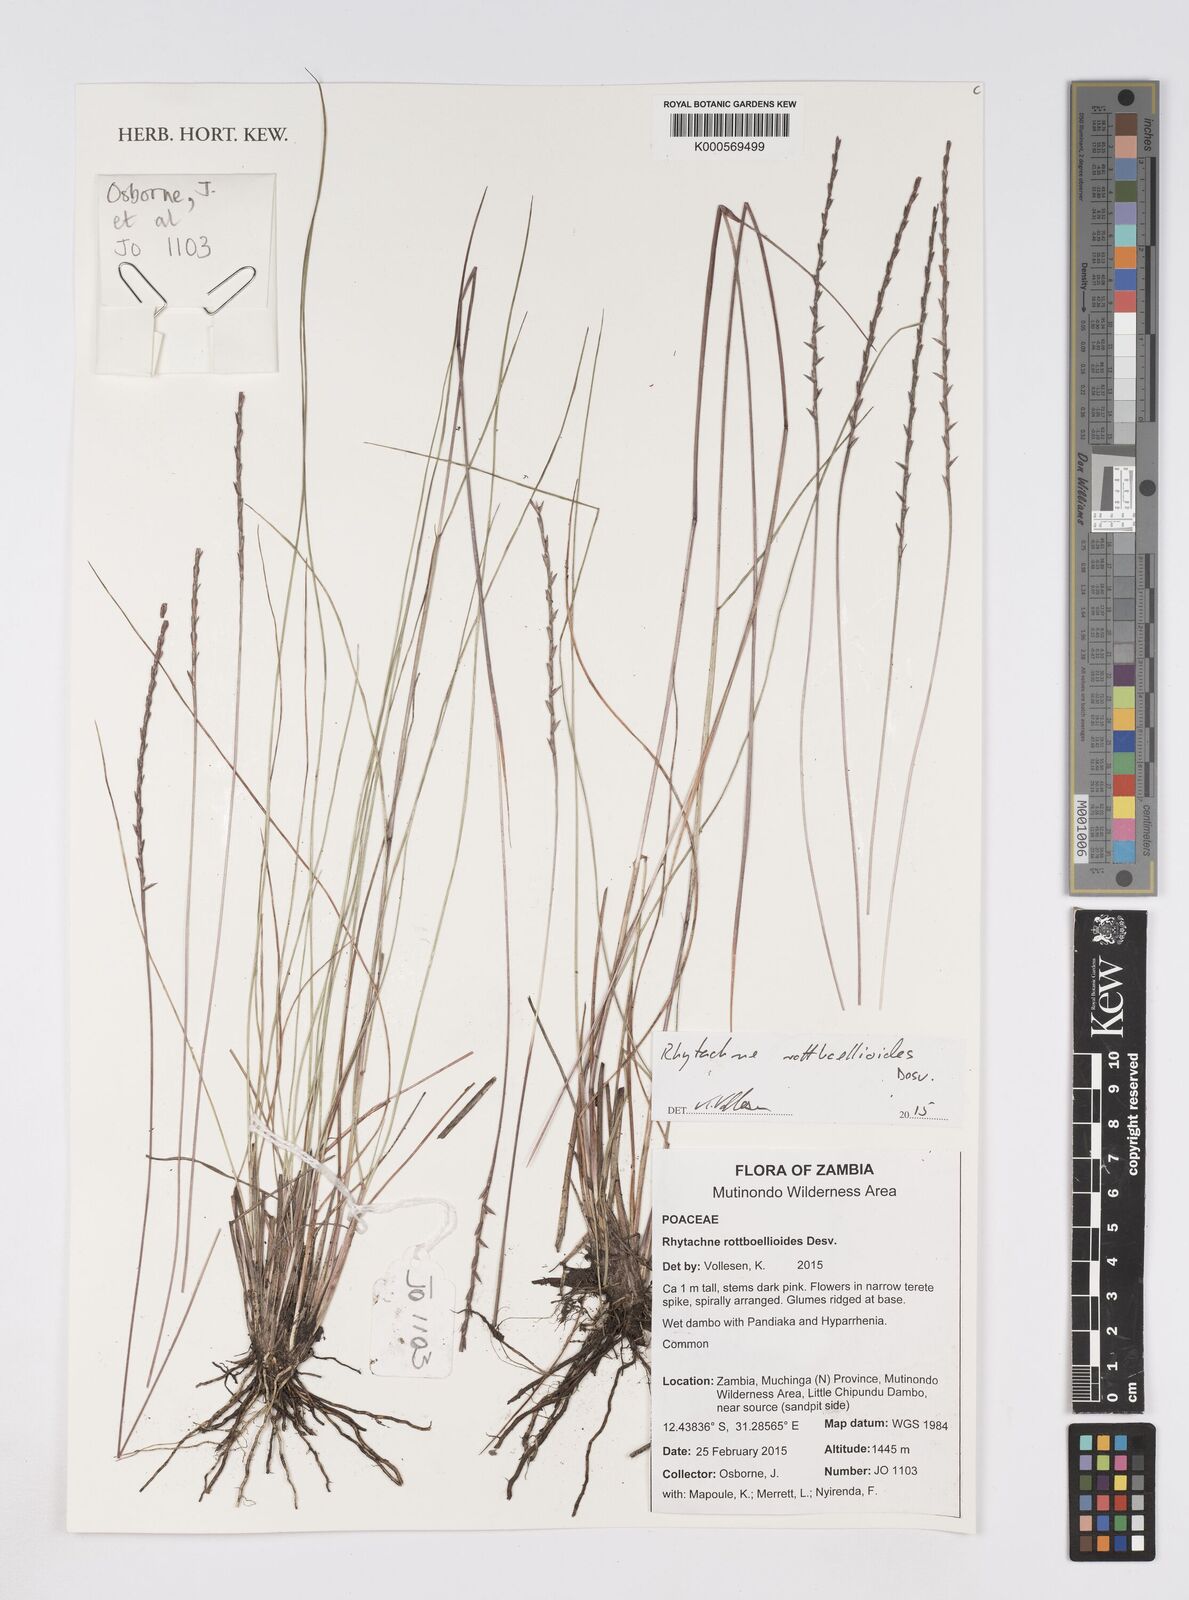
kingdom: Plantae
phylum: Tracheophyta
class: Liliopsida
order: Poales
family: Poaceae
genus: Rhytachne
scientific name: Rhytachne rottboellioides
